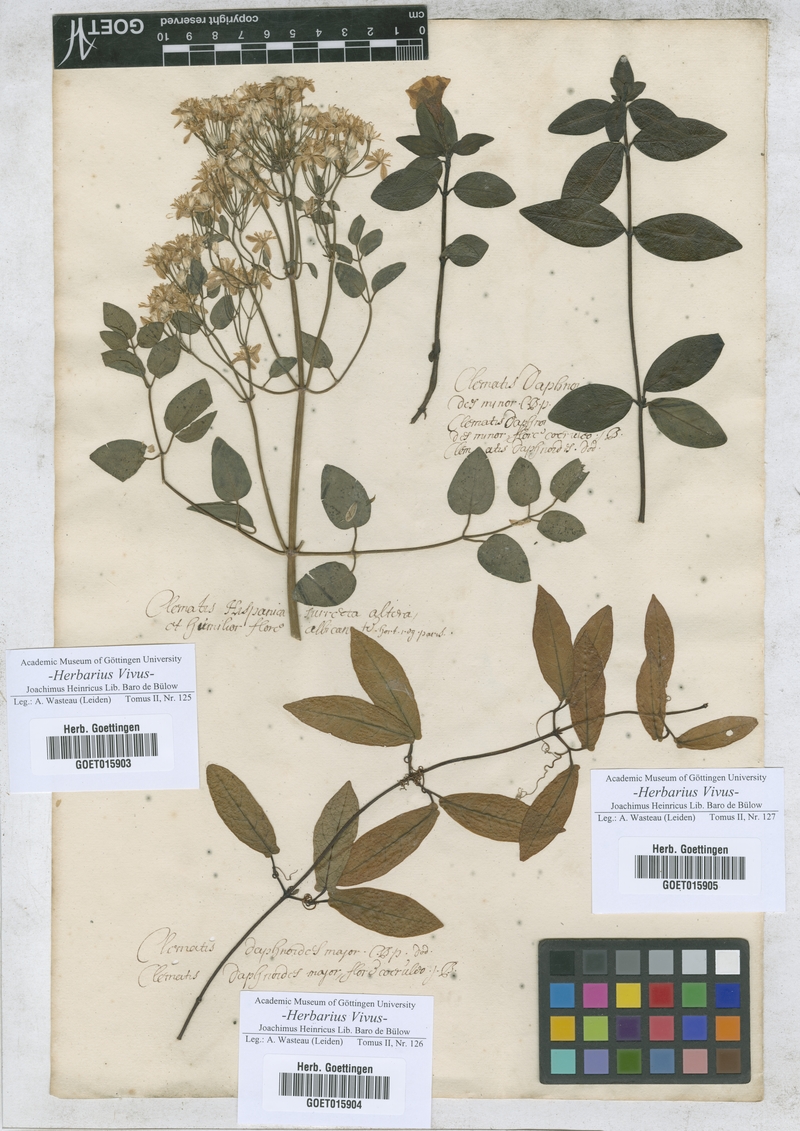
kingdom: Plantae
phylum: Tracheophyta
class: Magnoliopsida
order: Ranunculales
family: Ranunculaceae
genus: Clematis
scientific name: Clematis
